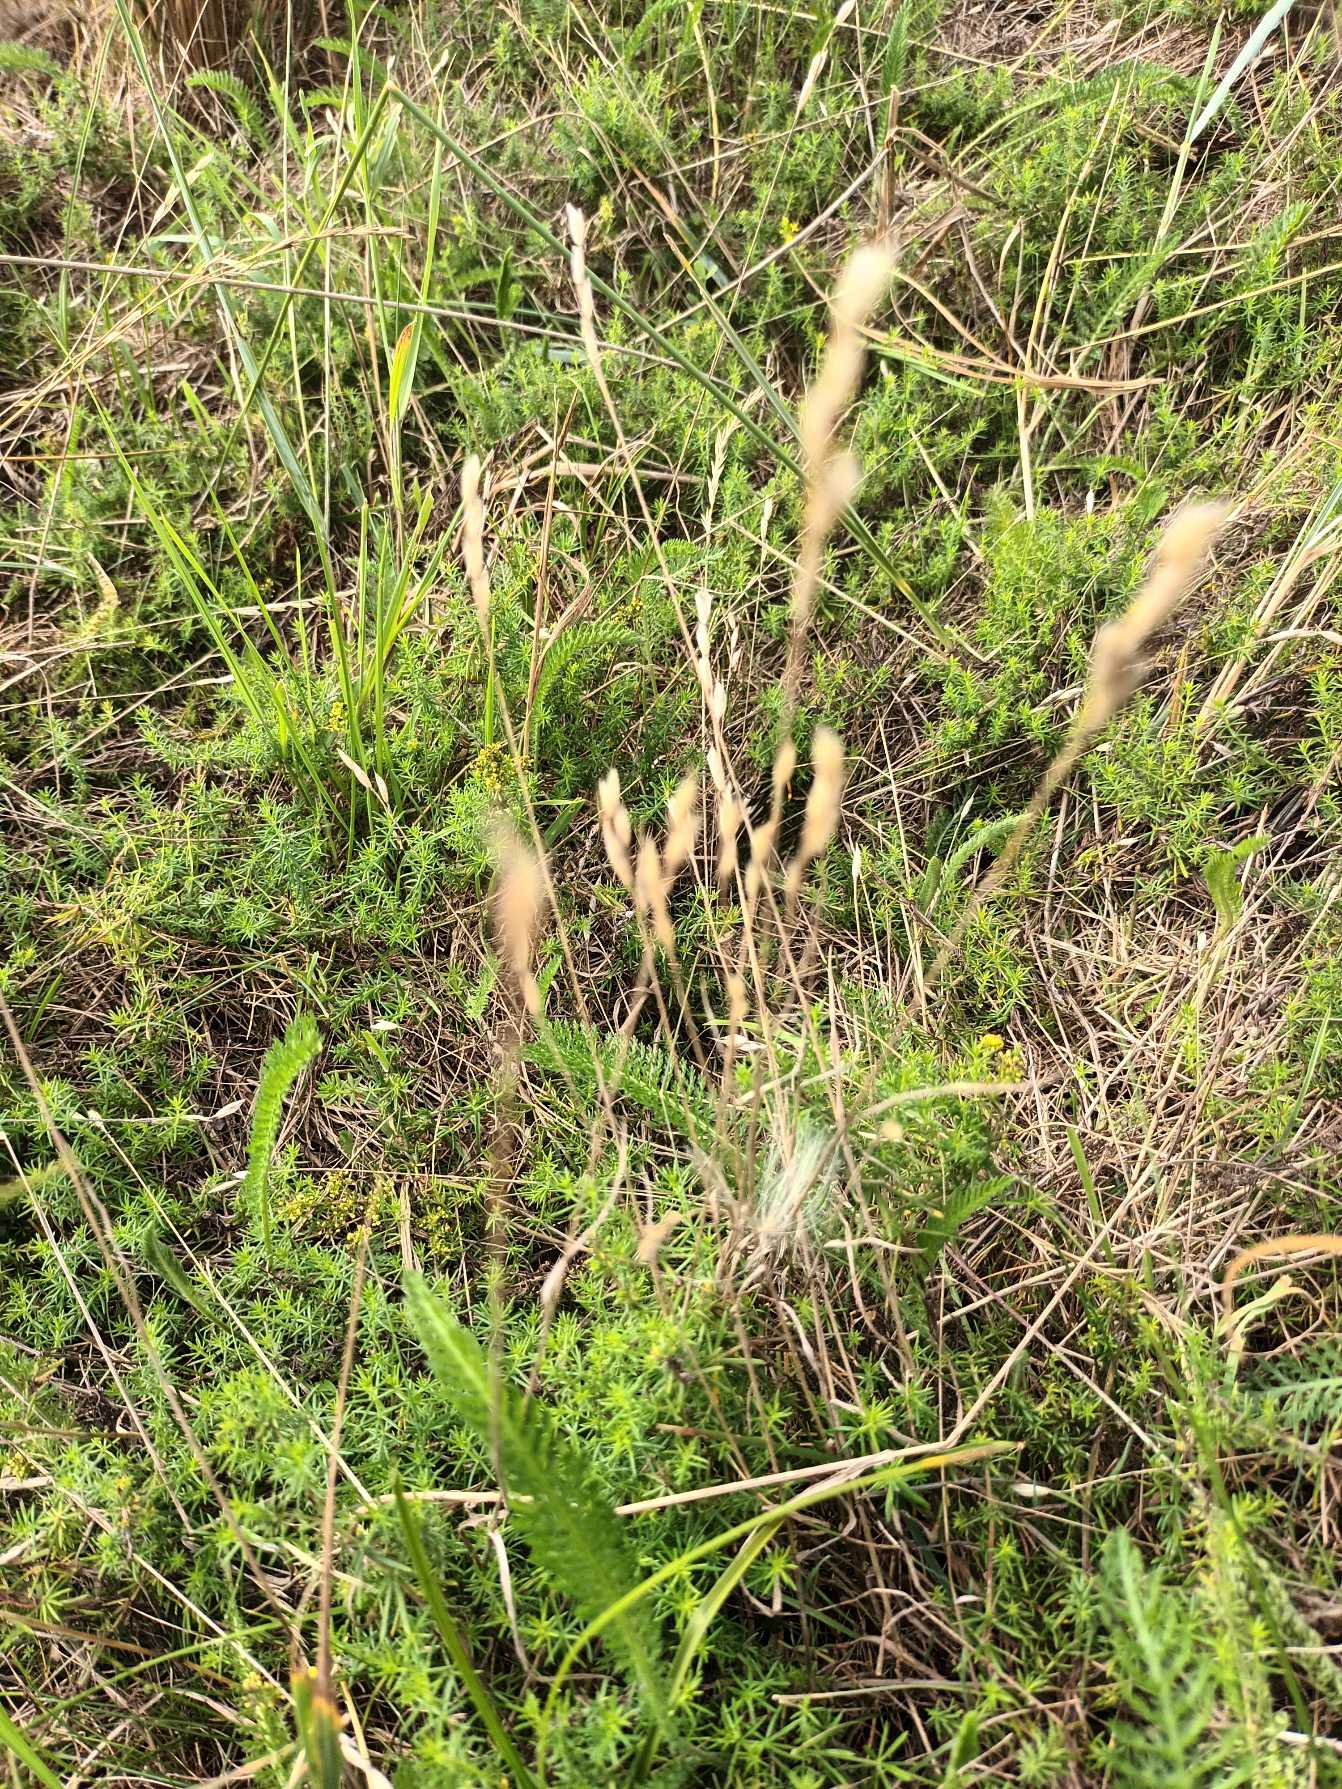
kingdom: Plantae
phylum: Tracheophyta
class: Liliopsida
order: Poales
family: Poaceae
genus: Bromus
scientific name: Bromus hordeaceus
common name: Blød hejre
